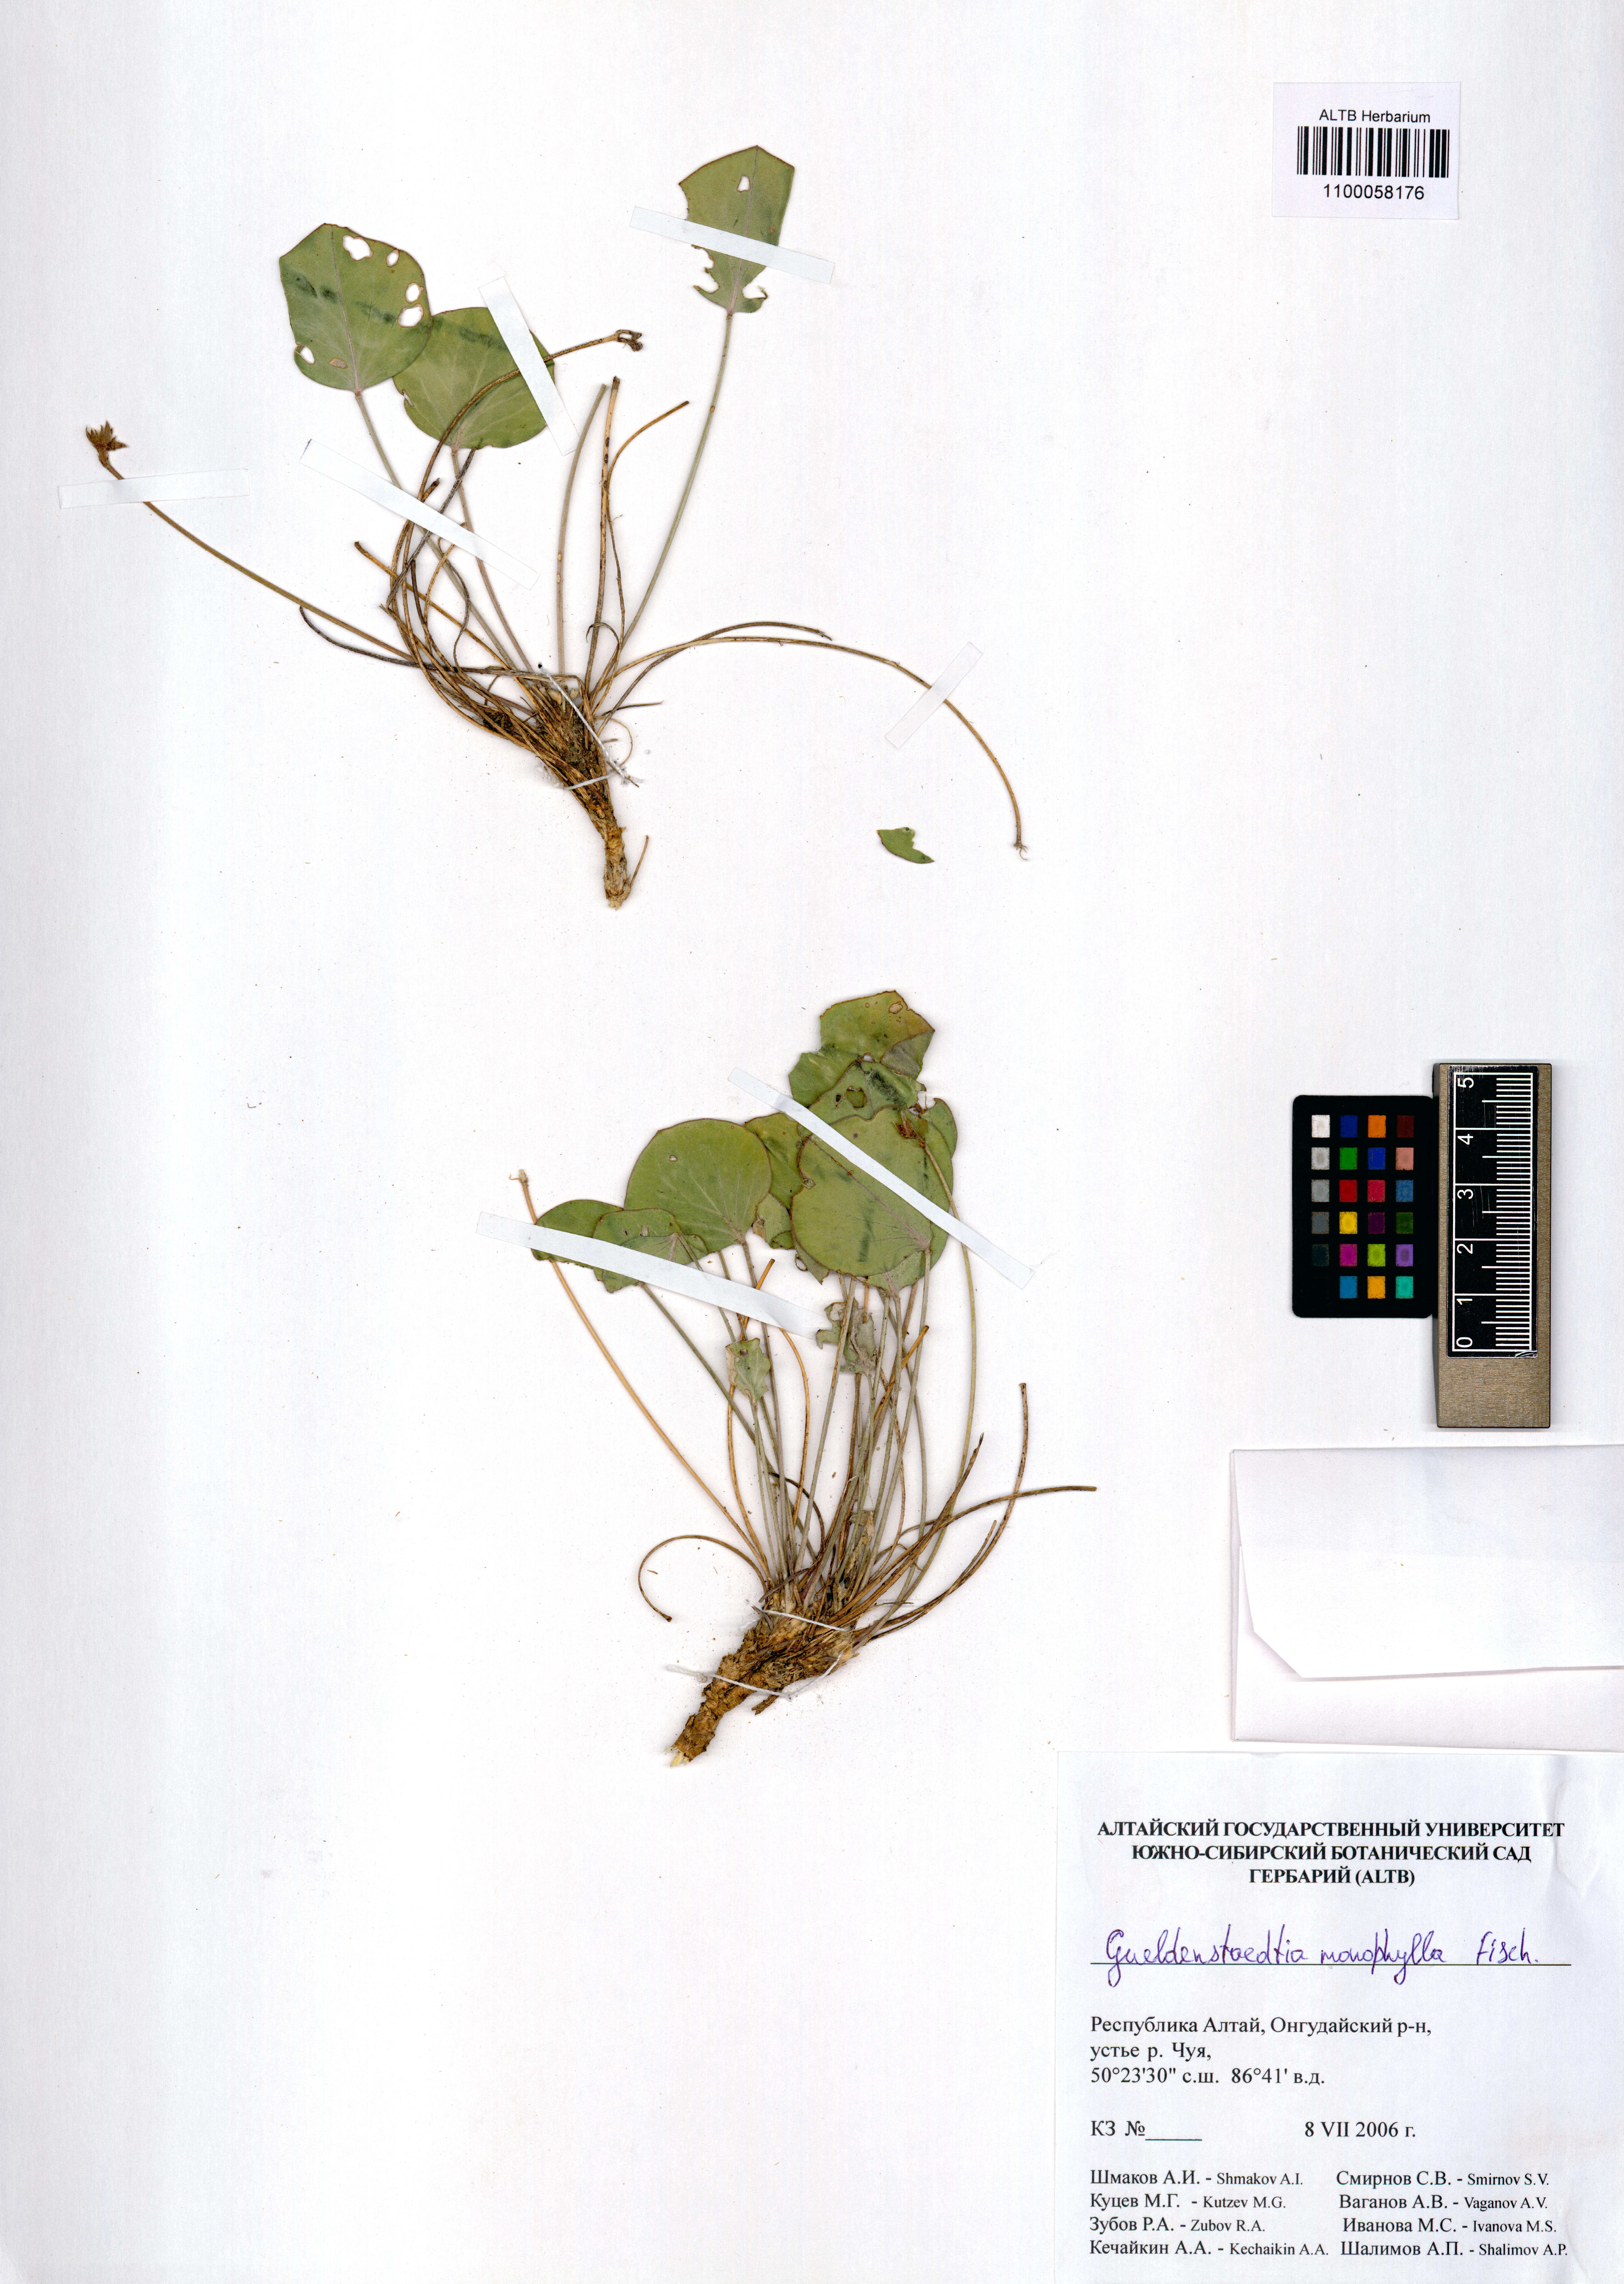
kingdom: Plantae
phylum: Tracheophyta
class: Magnoliopsida
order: Fabales
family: Fabaceae
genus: Gueldenstaedtia
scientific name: Gueldenstaedtia monophylla
